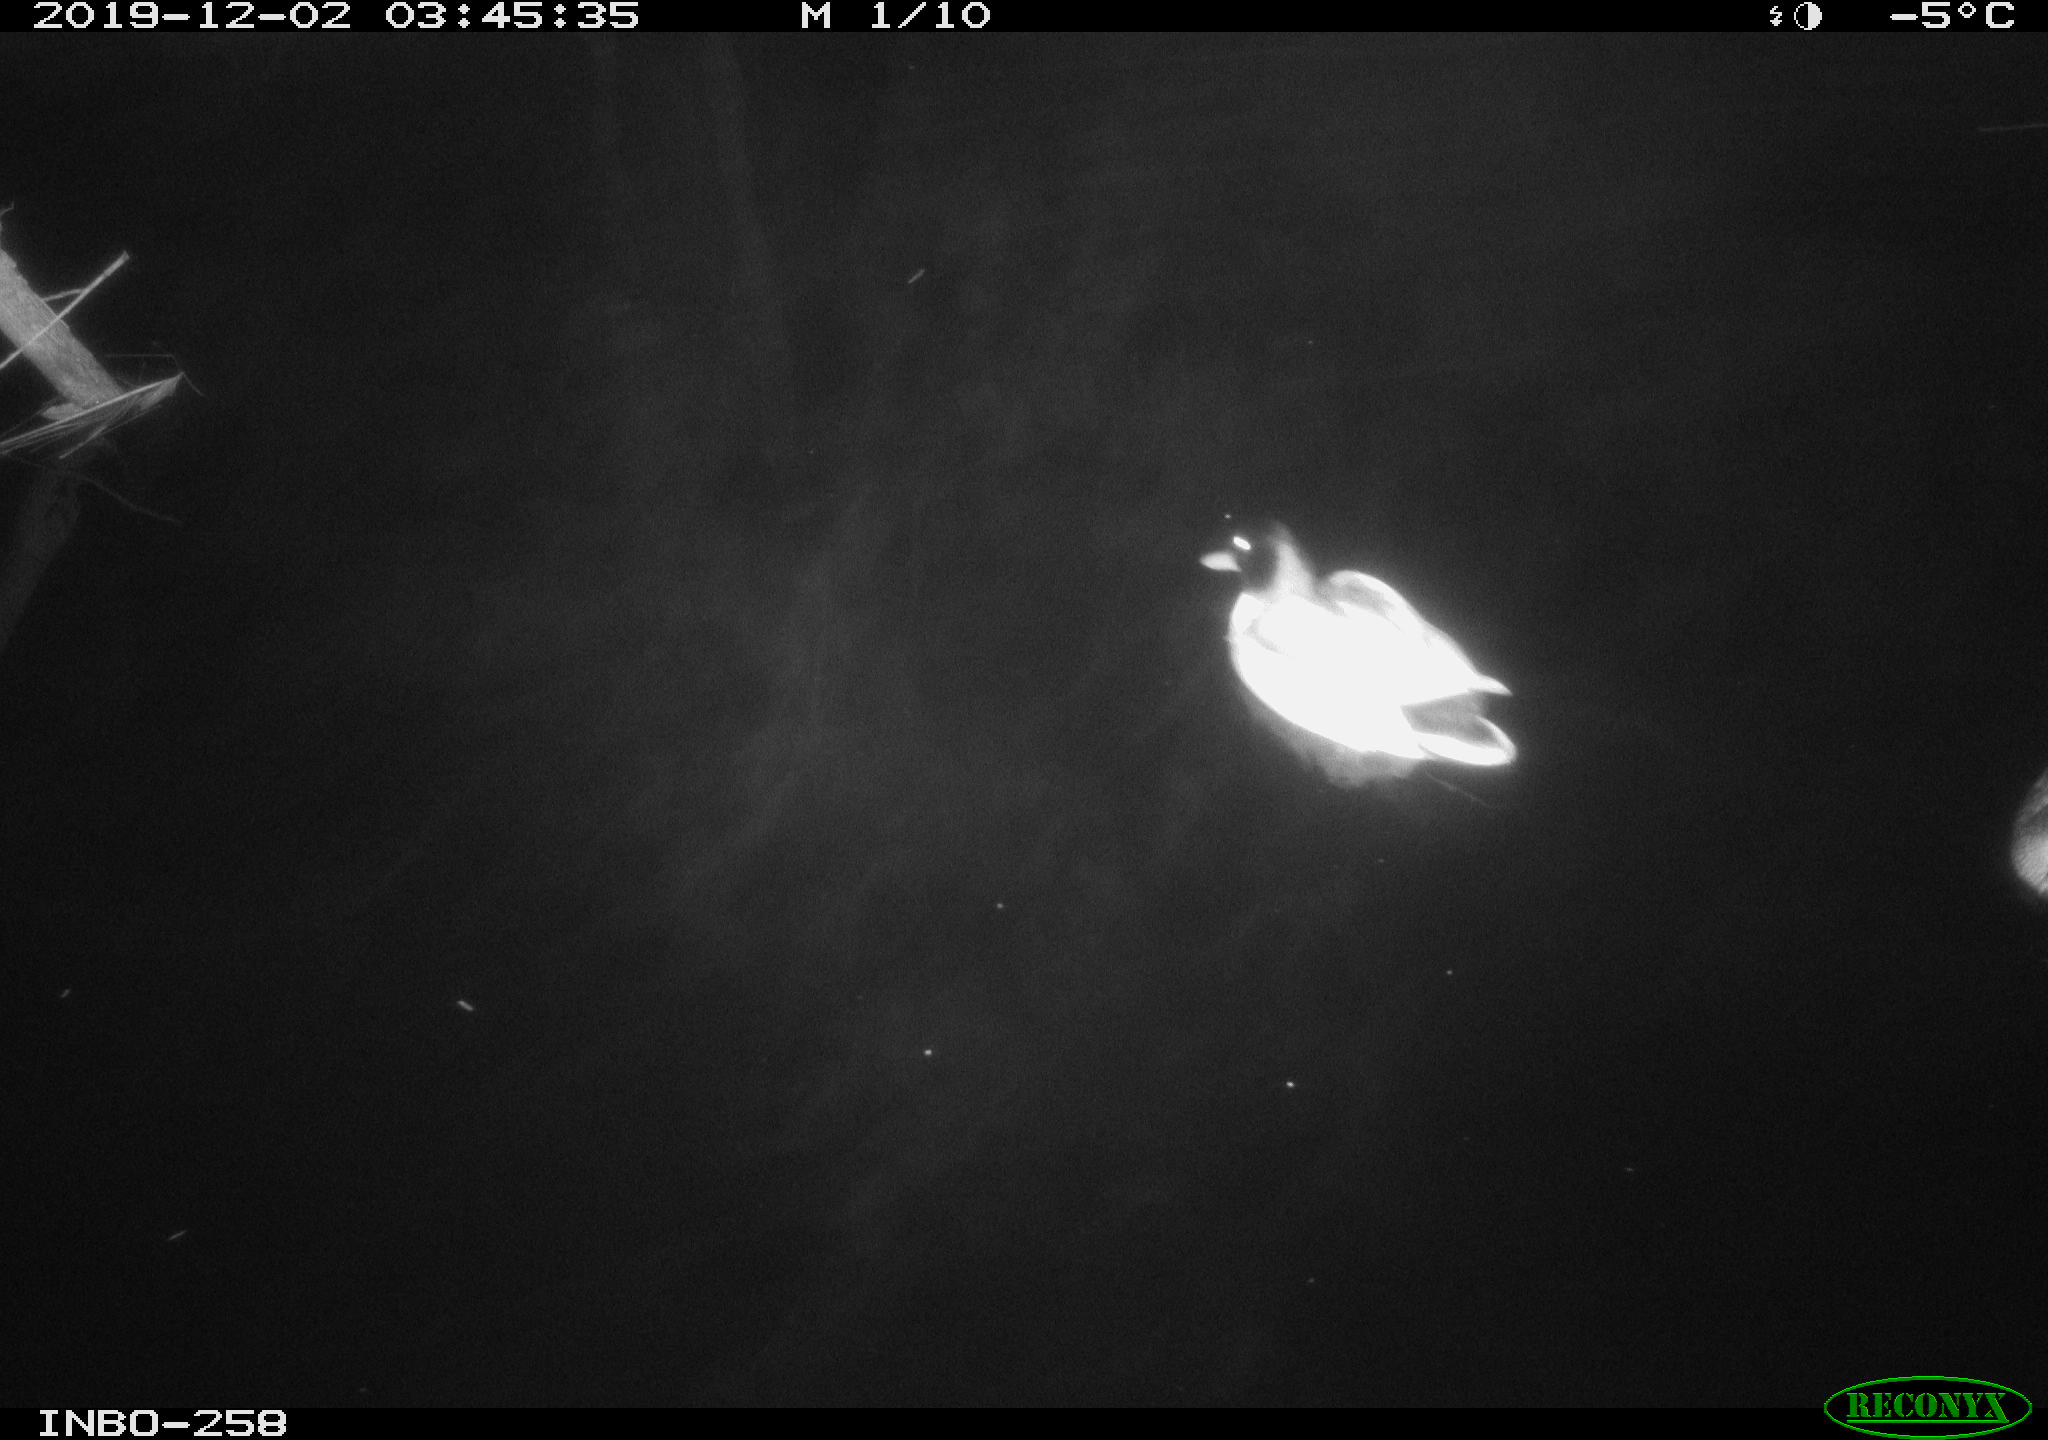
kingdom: Animalia
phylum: Chordata
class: Aves
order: Anseriformes
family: Anatidae
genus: Anas
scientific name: Anas platyrhynchos
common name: Mallard
